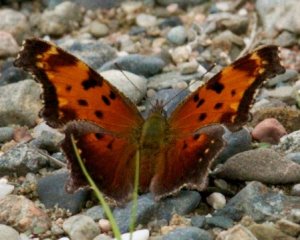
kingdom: Animalia
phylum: Arthropoda
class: Insecta
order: Lepidoptera
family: Nymphalidae
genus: Polygonia
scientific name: Polygonia progne
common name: Gray Comma
